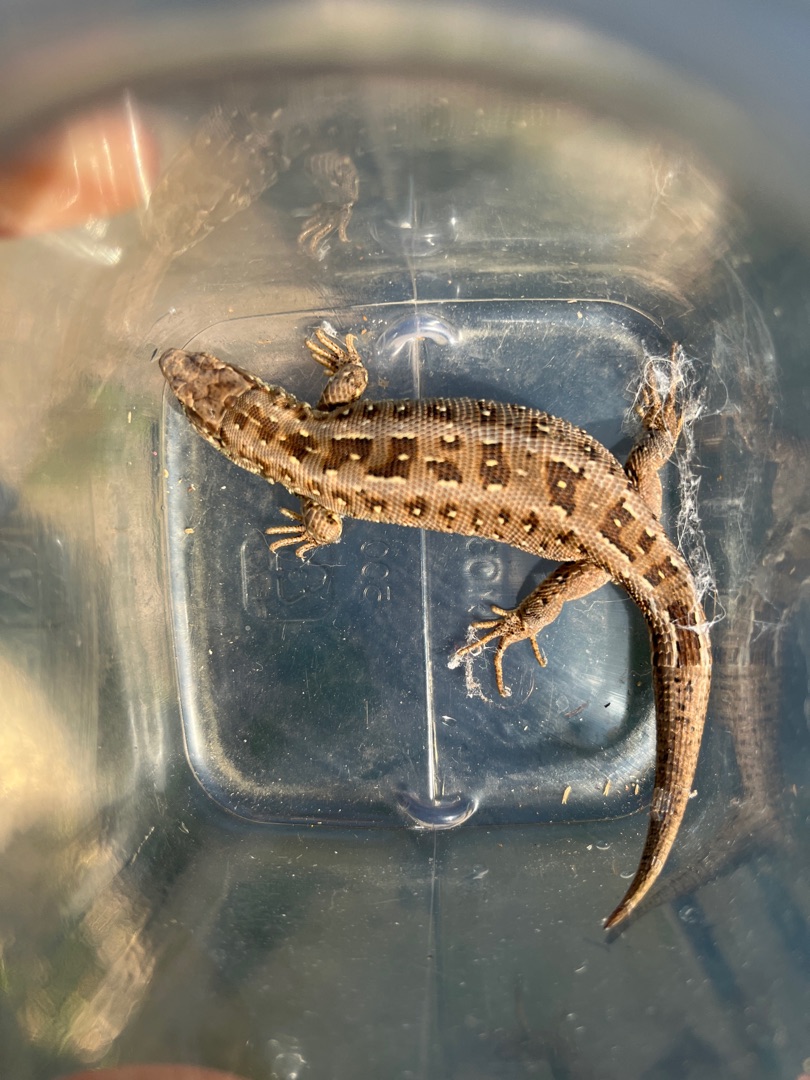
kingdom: Animalia
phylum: Chordata
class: Squamata
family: Lacertidae
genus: Lacerta
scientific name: Lacerta agilis
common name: Markfirben
